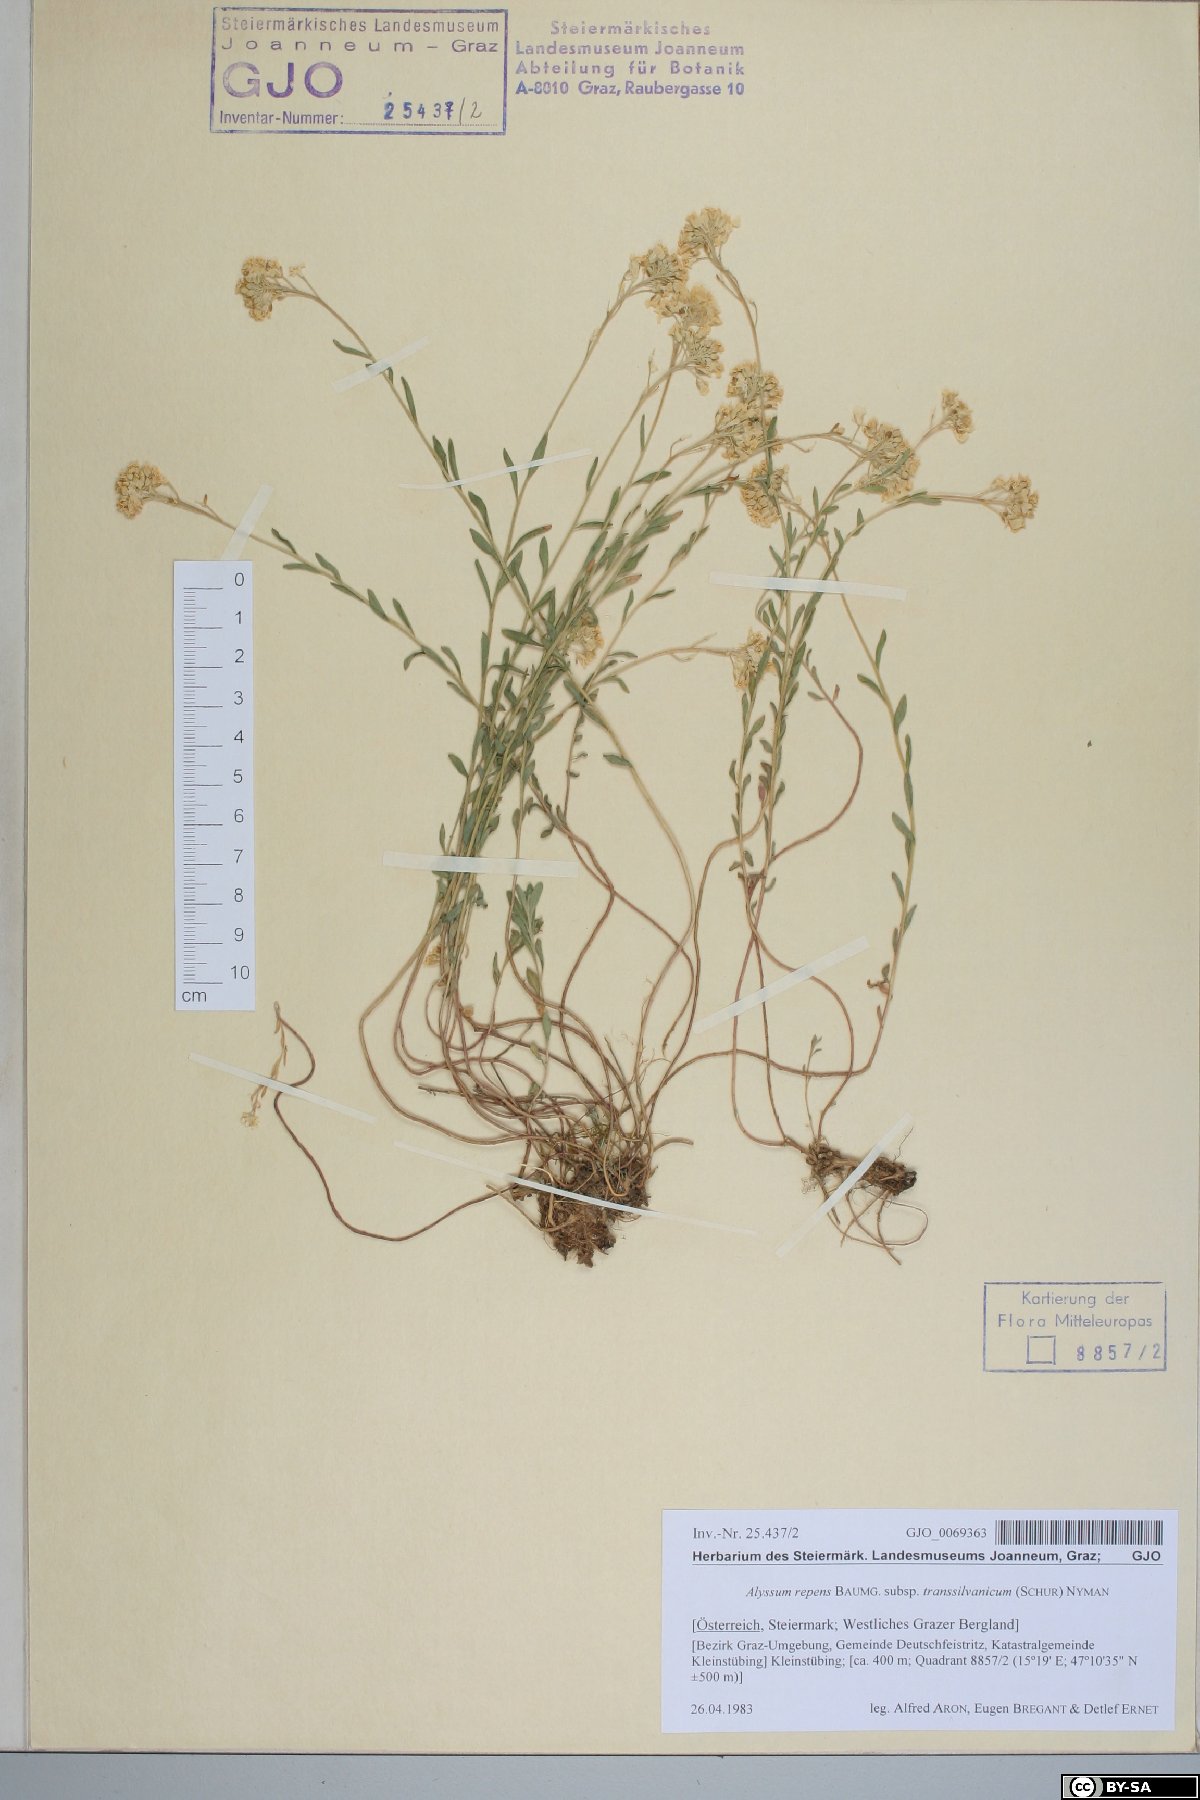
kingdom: Plantae
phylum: Tracheophyta
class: Magnoliopsida
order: Brassicales
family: Brassicaceae
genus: Alyssum
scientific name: Alyssum repens
